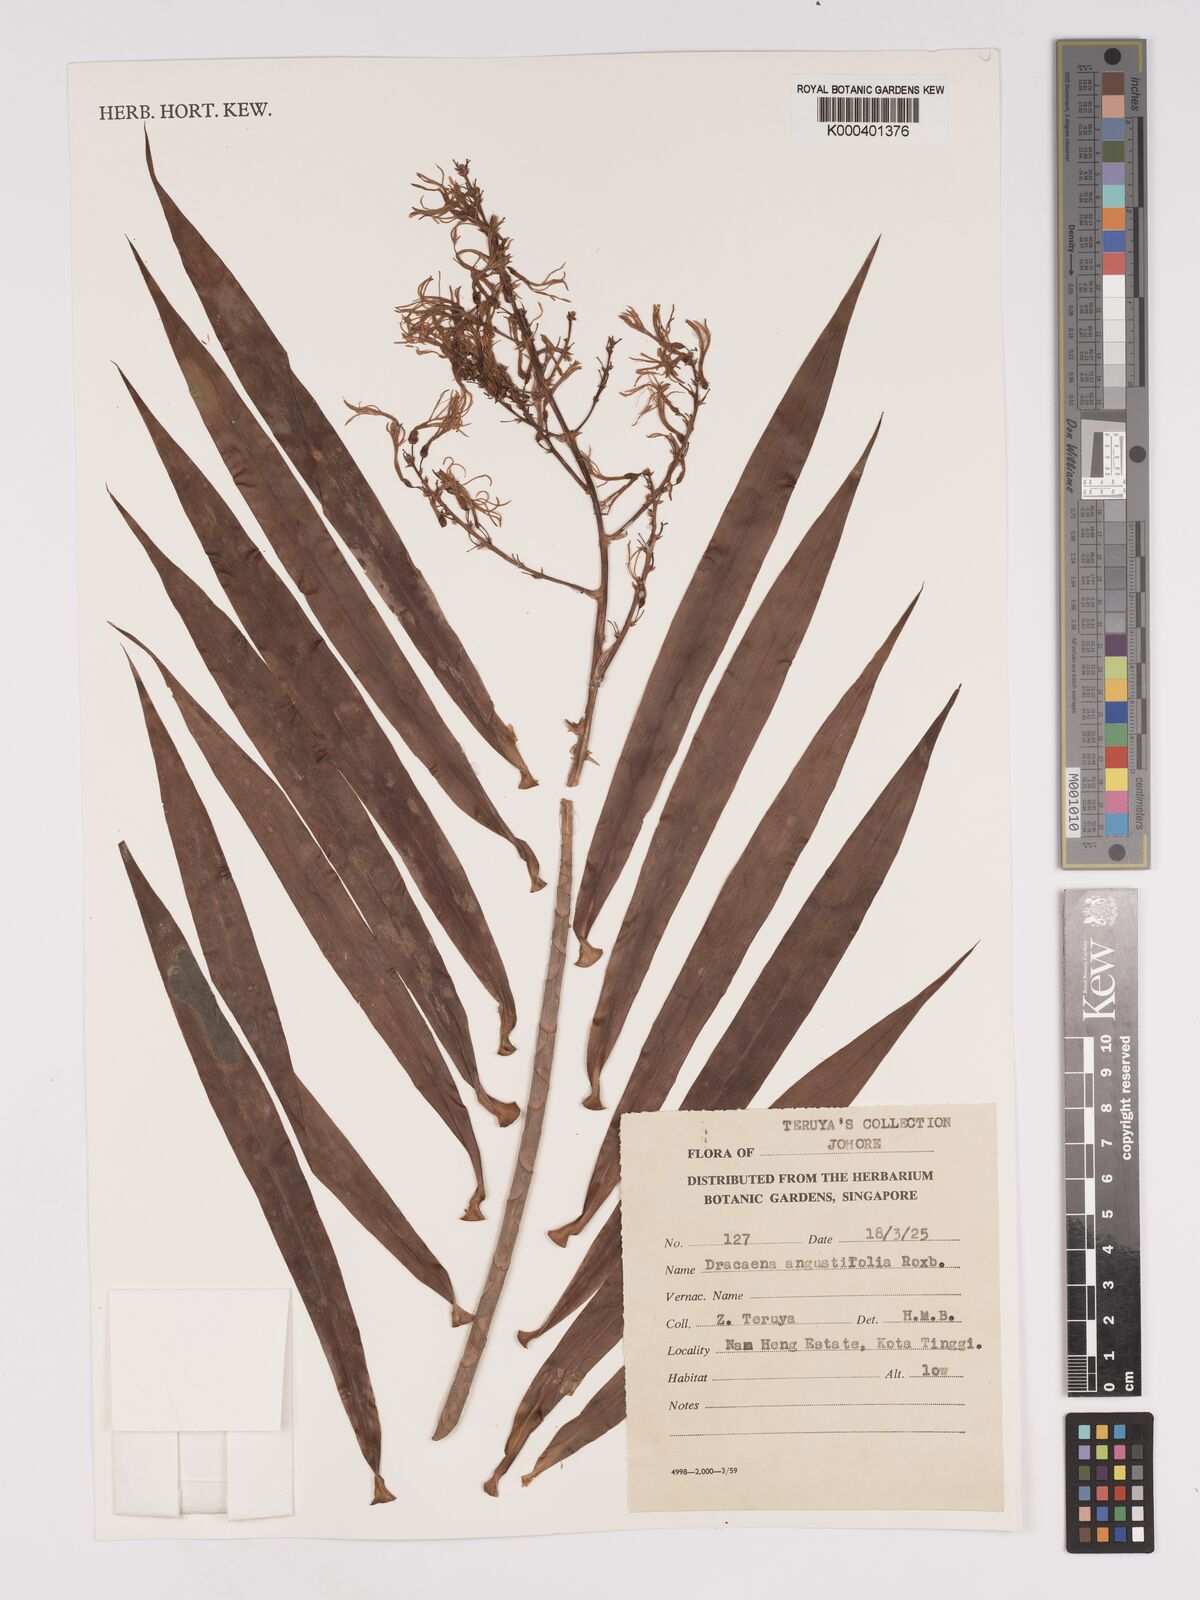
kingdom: Plantae
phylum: Tracheophyta
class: Liliopsida
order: Asparagales
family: Asparagaceae
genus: Dracaena
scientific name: Dracaena angustifolia
